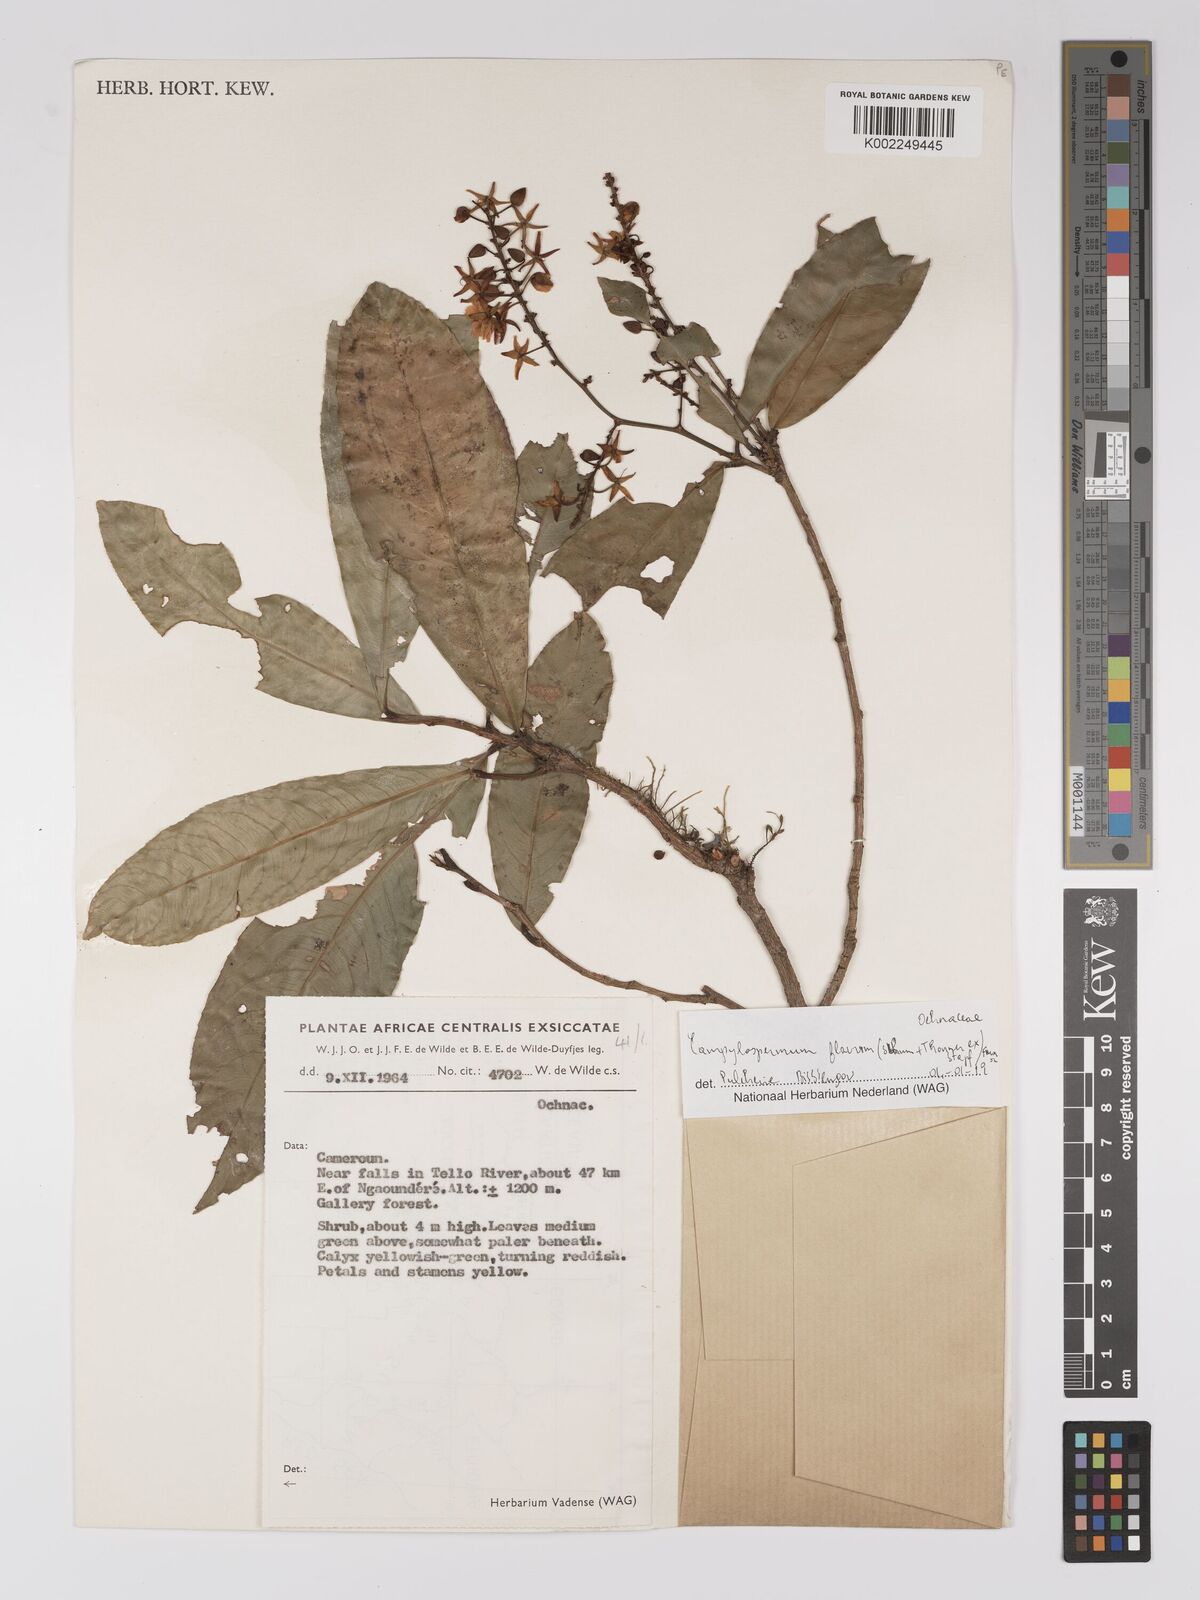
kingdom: Plantae
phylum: Tracheophyta
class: Magnoliopsida
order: Malpighiales
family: Ochnaceae
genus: Campylospermum
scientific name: Campylospermum flavum
